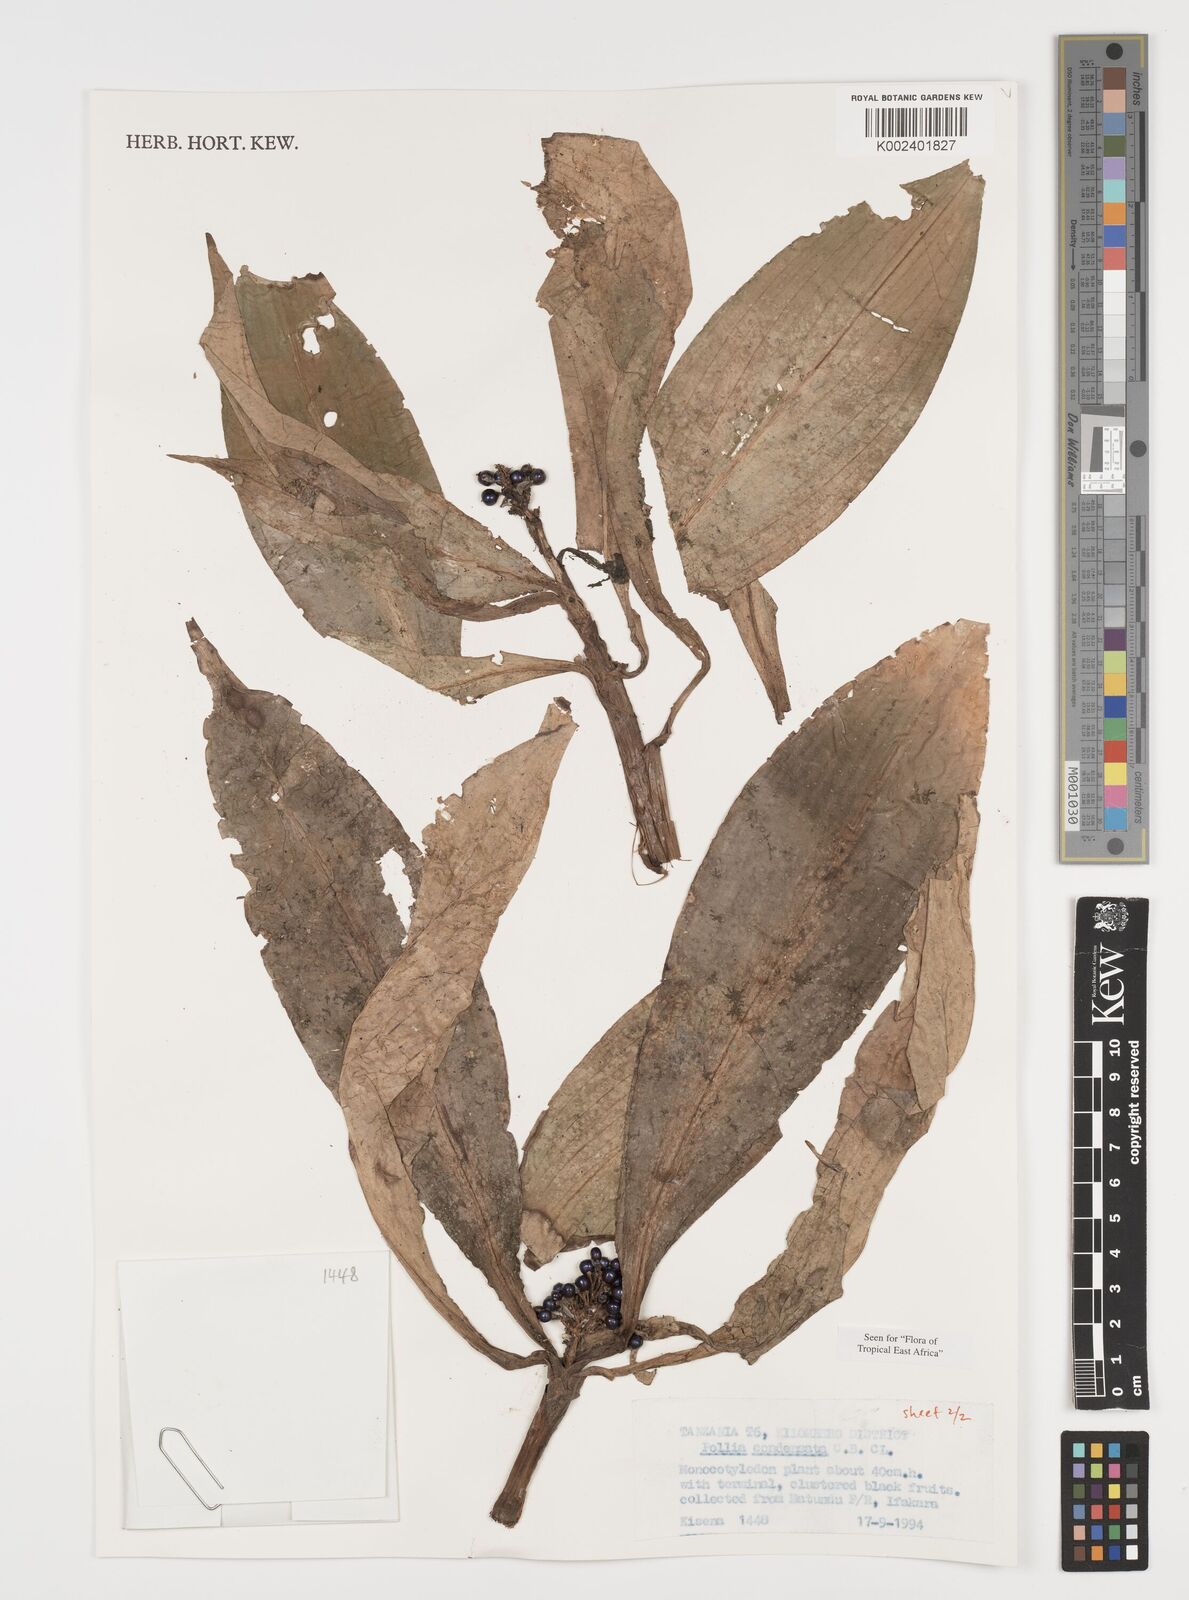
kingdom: Plantae
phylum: Tracheophyta
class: Liliopsida
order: Commelinales
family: Commelinaceae
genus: Pollia
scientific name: Pollia condensata
